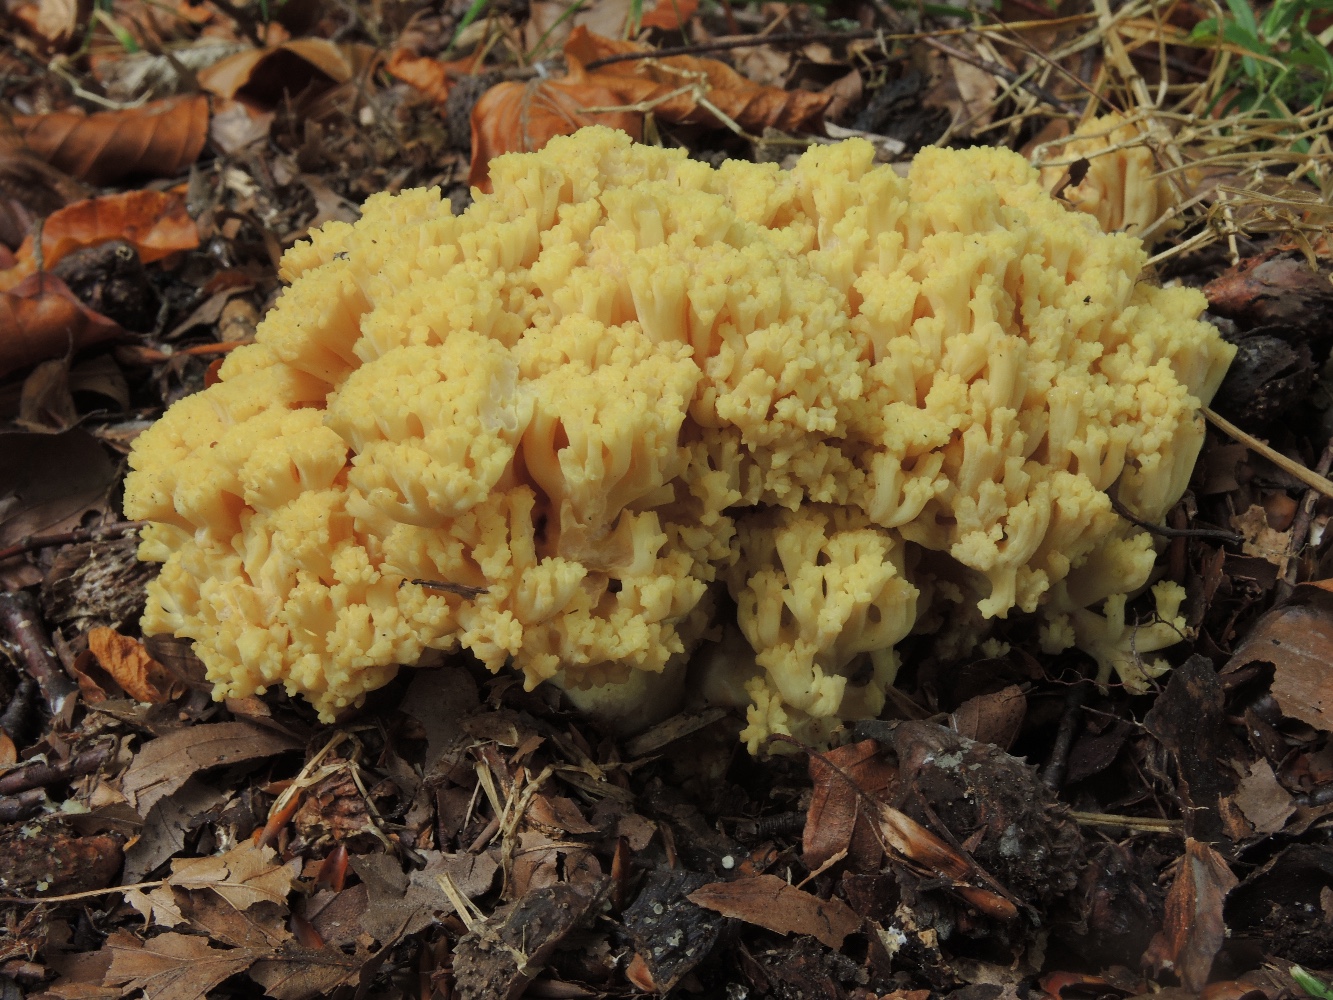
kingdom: Fungi
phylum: Basidiomycota
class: Agaricomycetes
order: Gomphales
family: Gomphaceae
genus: Ramaria
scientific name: Ramaria sanguinea
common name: blodplettet koralsvamp
